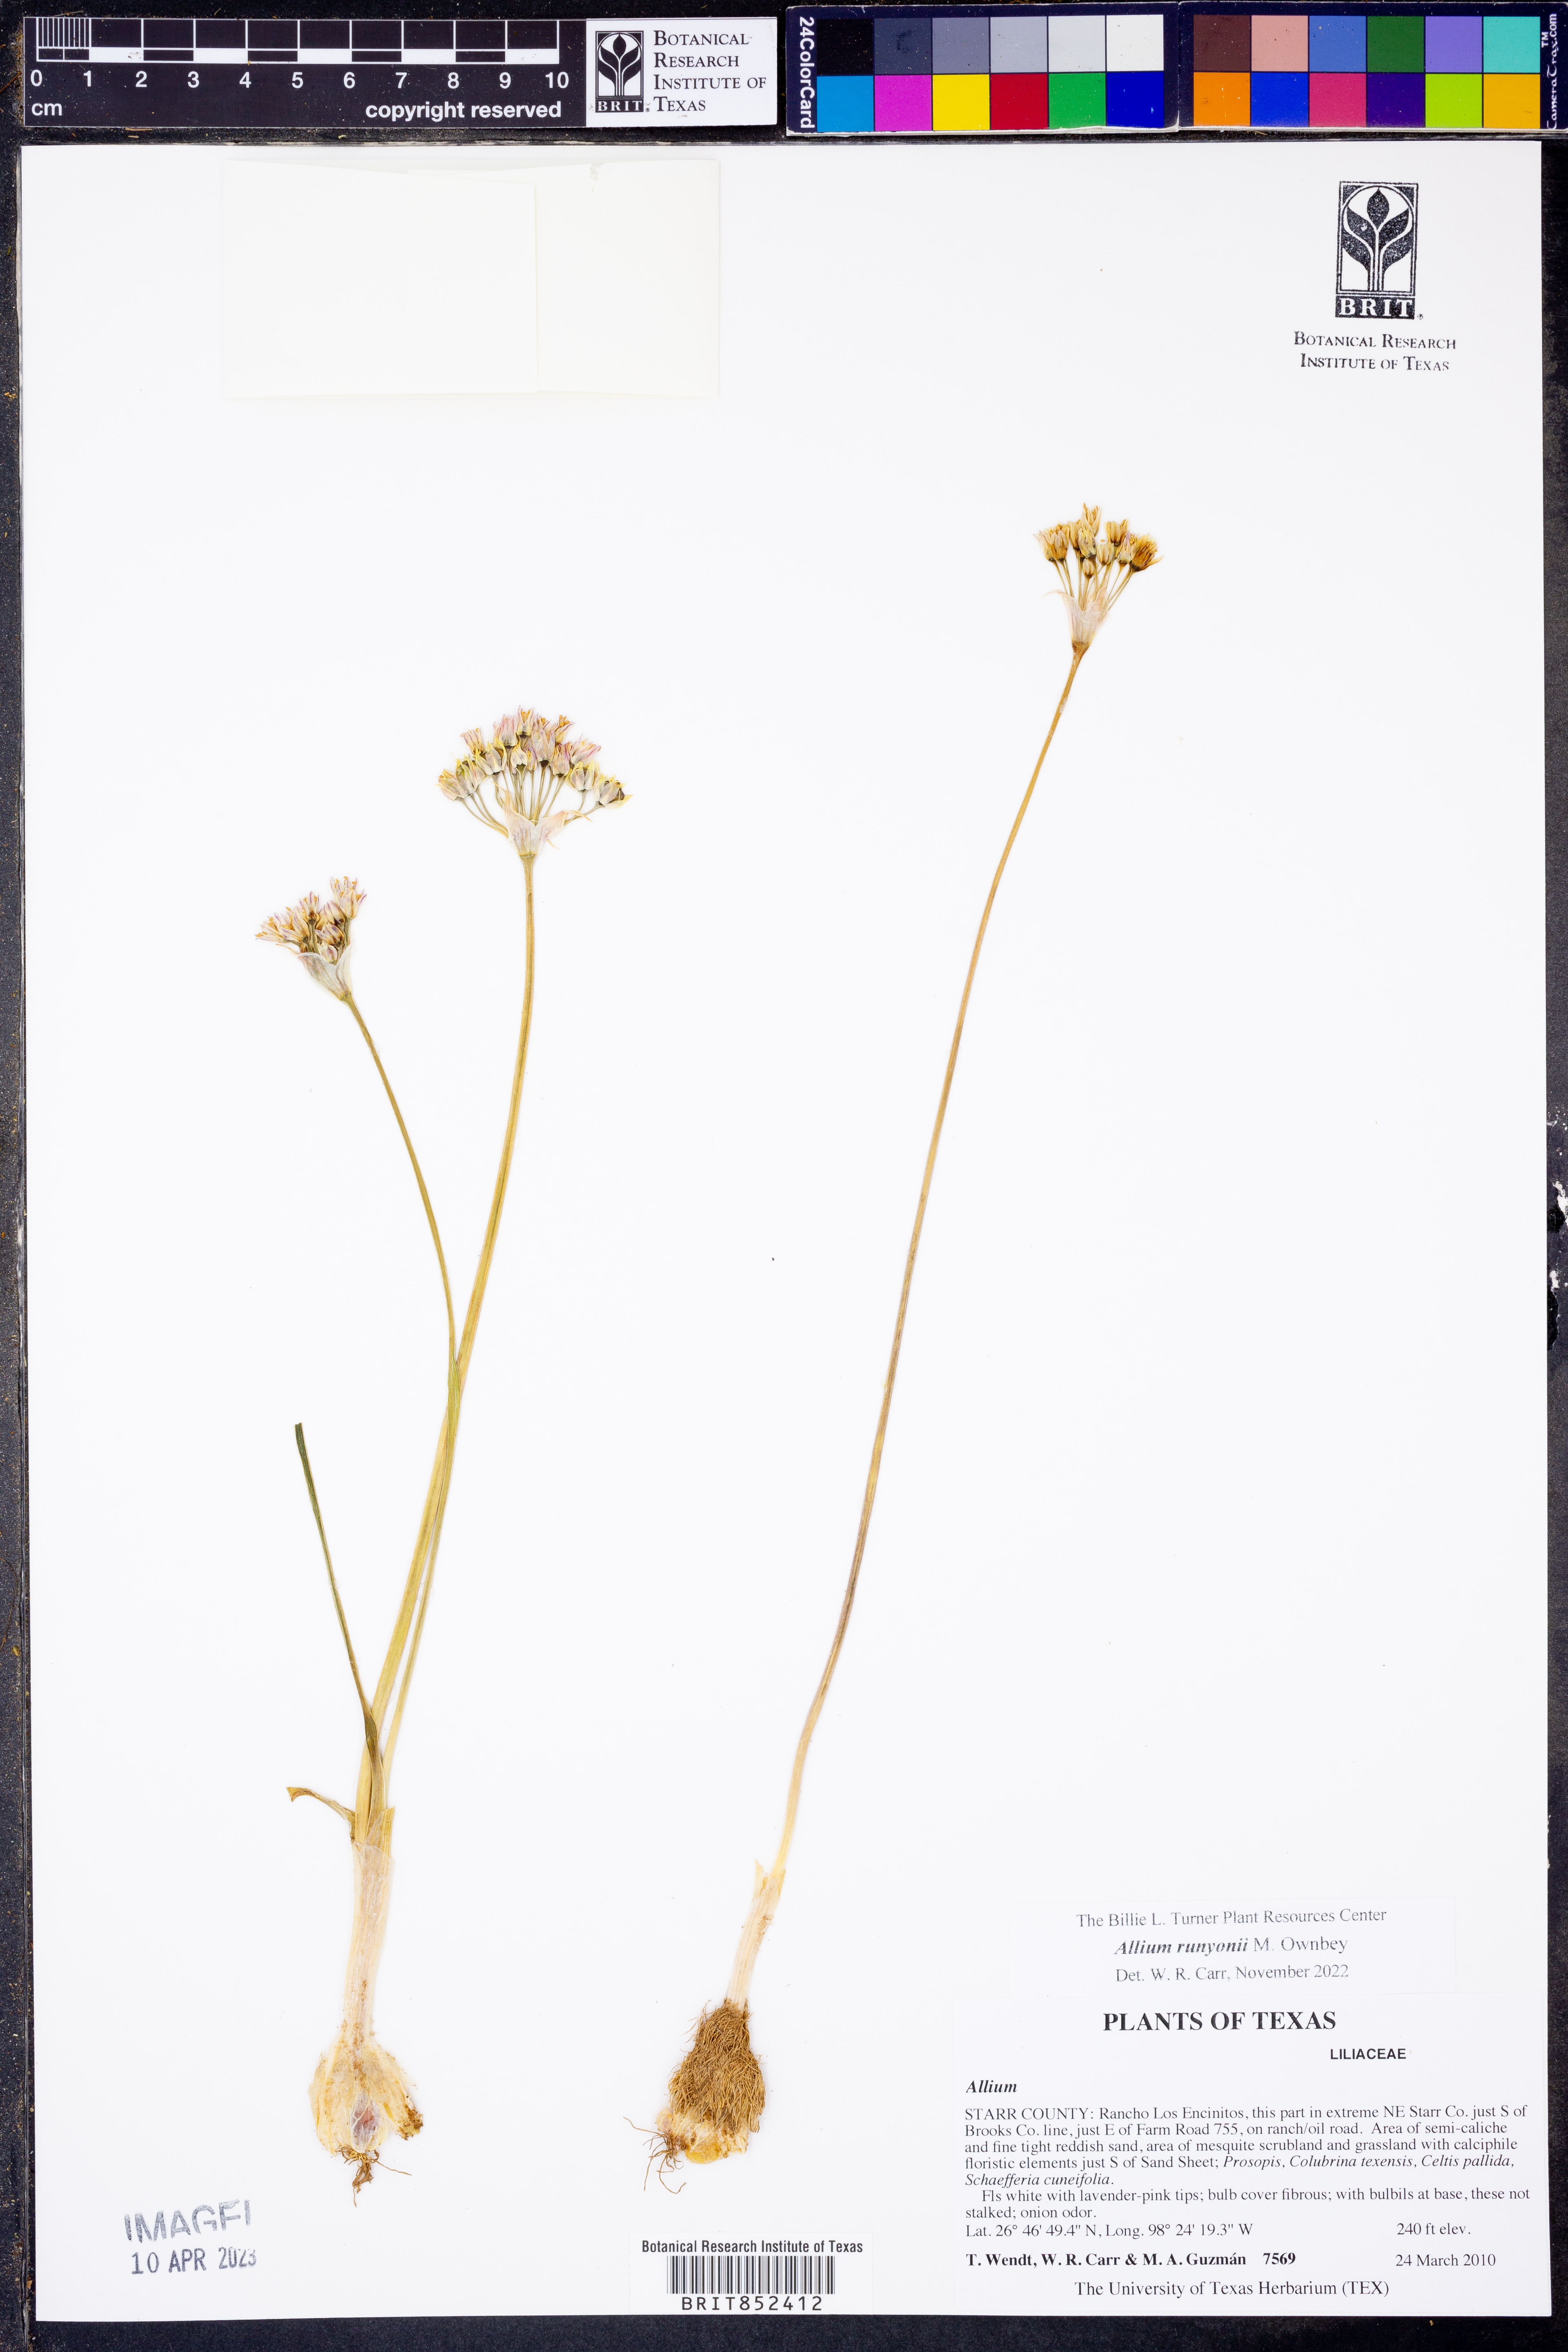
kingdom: Plantae
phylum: Tracheophyta
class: Liliopsida
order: Asparagales
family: Amaryllidaceae
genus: Allium
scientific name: Allium runyonii
